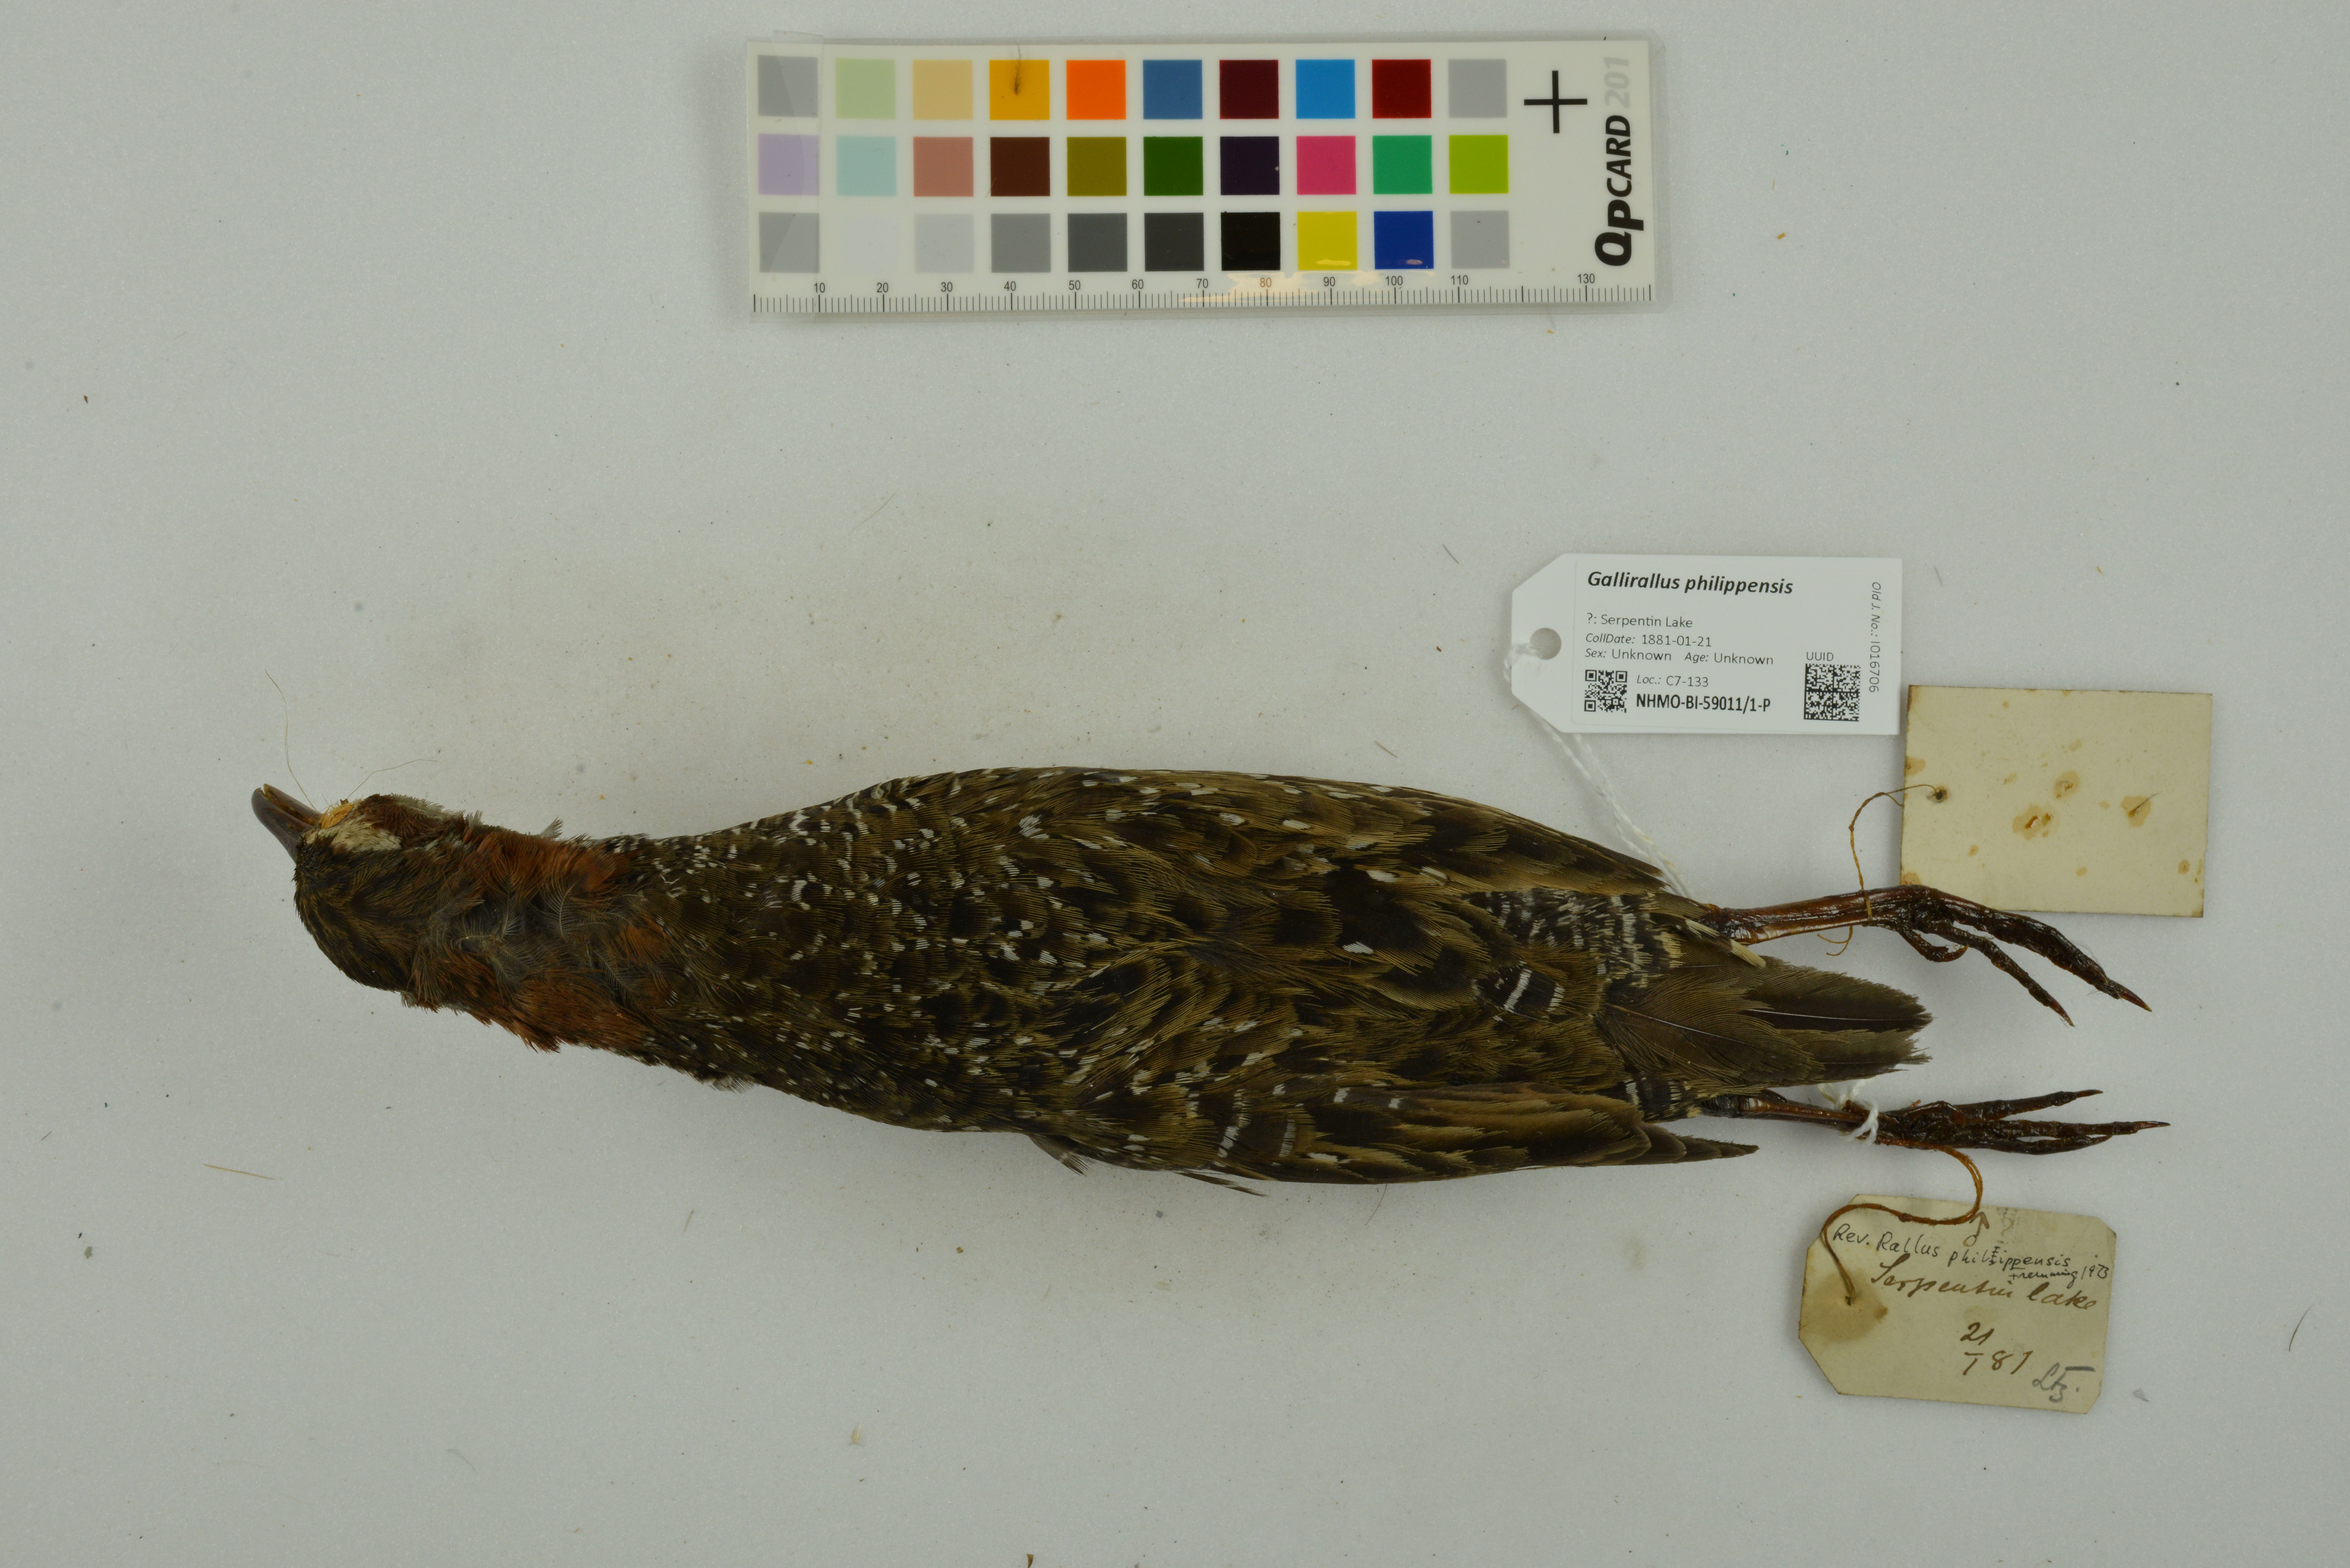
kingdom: Animalia
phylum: Chordata
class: Aves
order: Gruiformes
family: Rallidae
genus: Gallirallus
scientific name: Gallirallus philippensis
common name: Buff-banded rail
